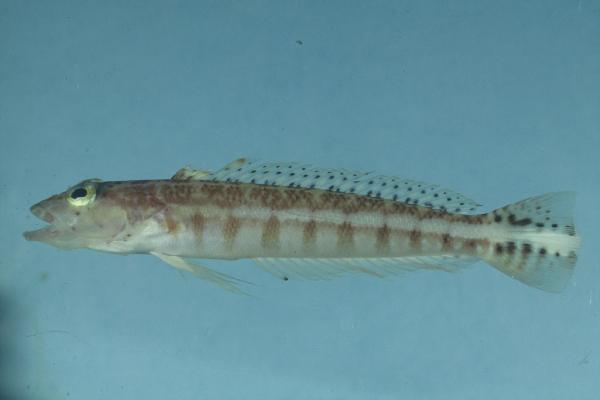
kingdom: Animalia
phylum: Chordata
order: Perciformes
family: Pinguipedidae
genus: Parapercis
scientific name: Parapercis xanthozona
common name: Yellowbar sandperch
